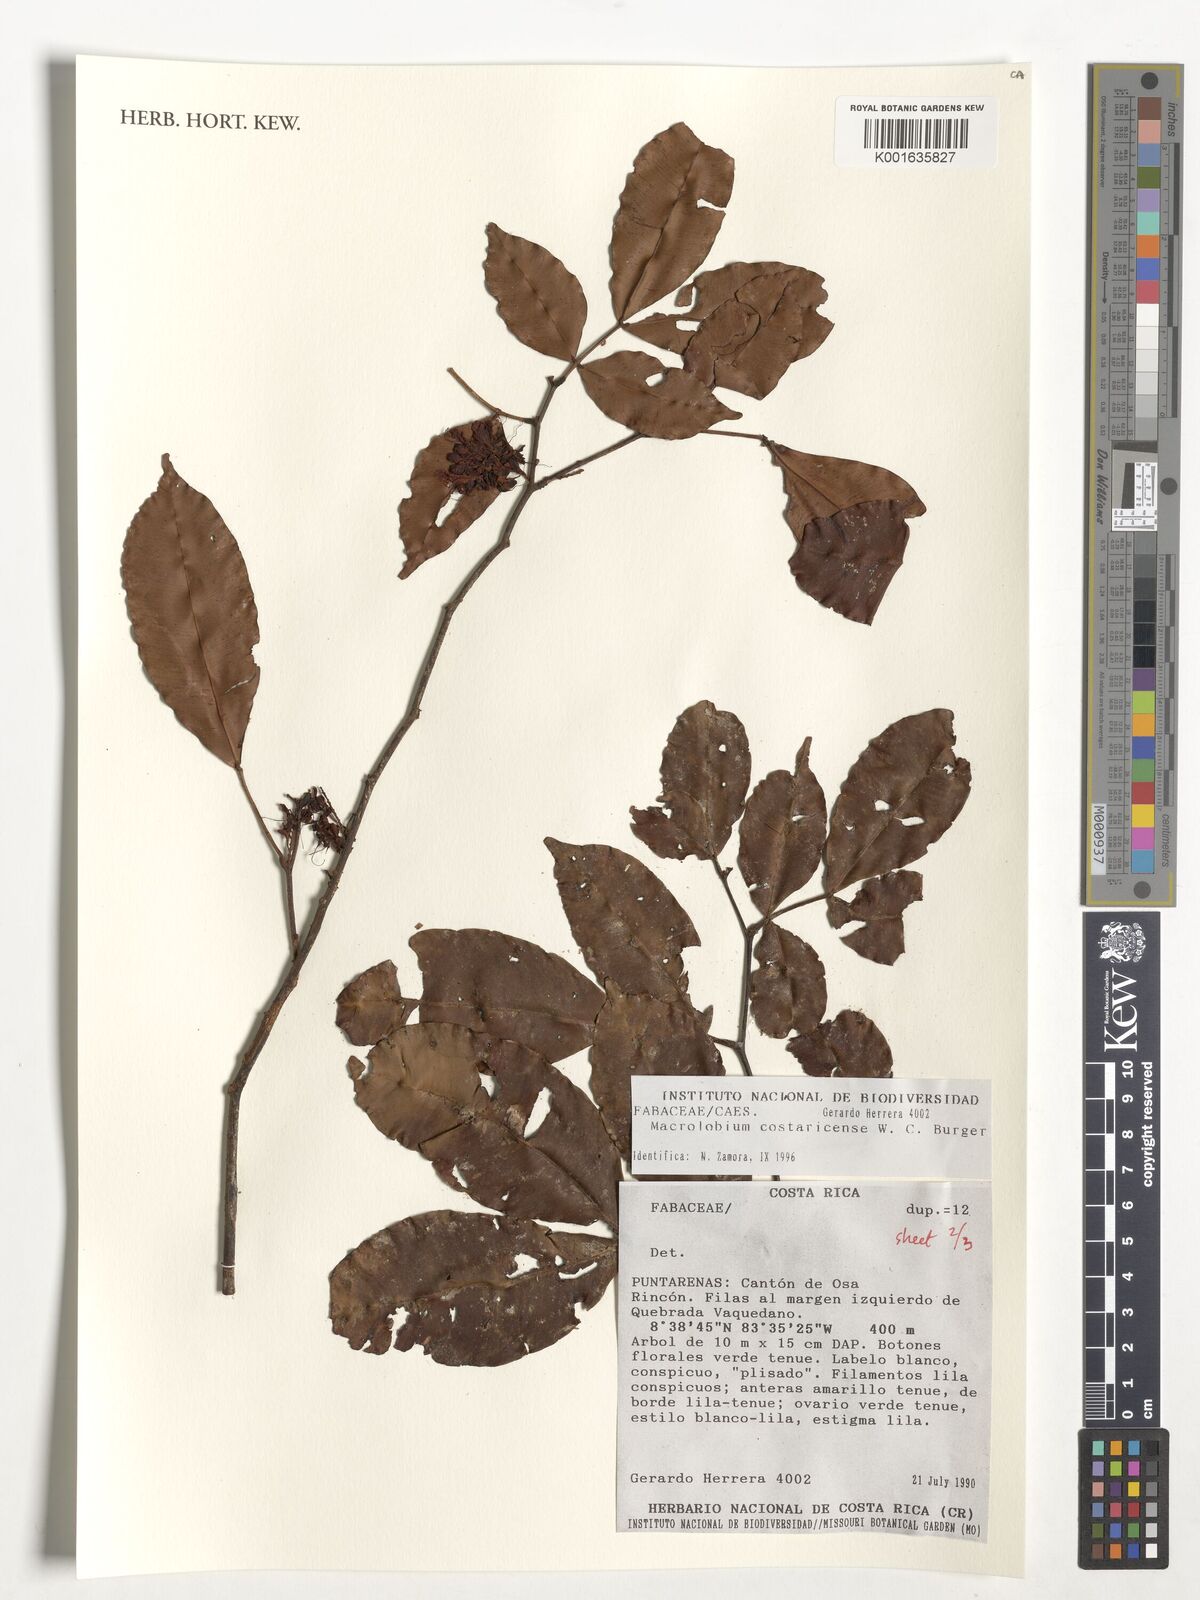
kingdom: Plantae
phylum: Tracheophyta
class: Magnoliopsida
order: Fabales
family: Fabaceae
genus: Macrolobium
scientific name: Macrolobium costaricense
